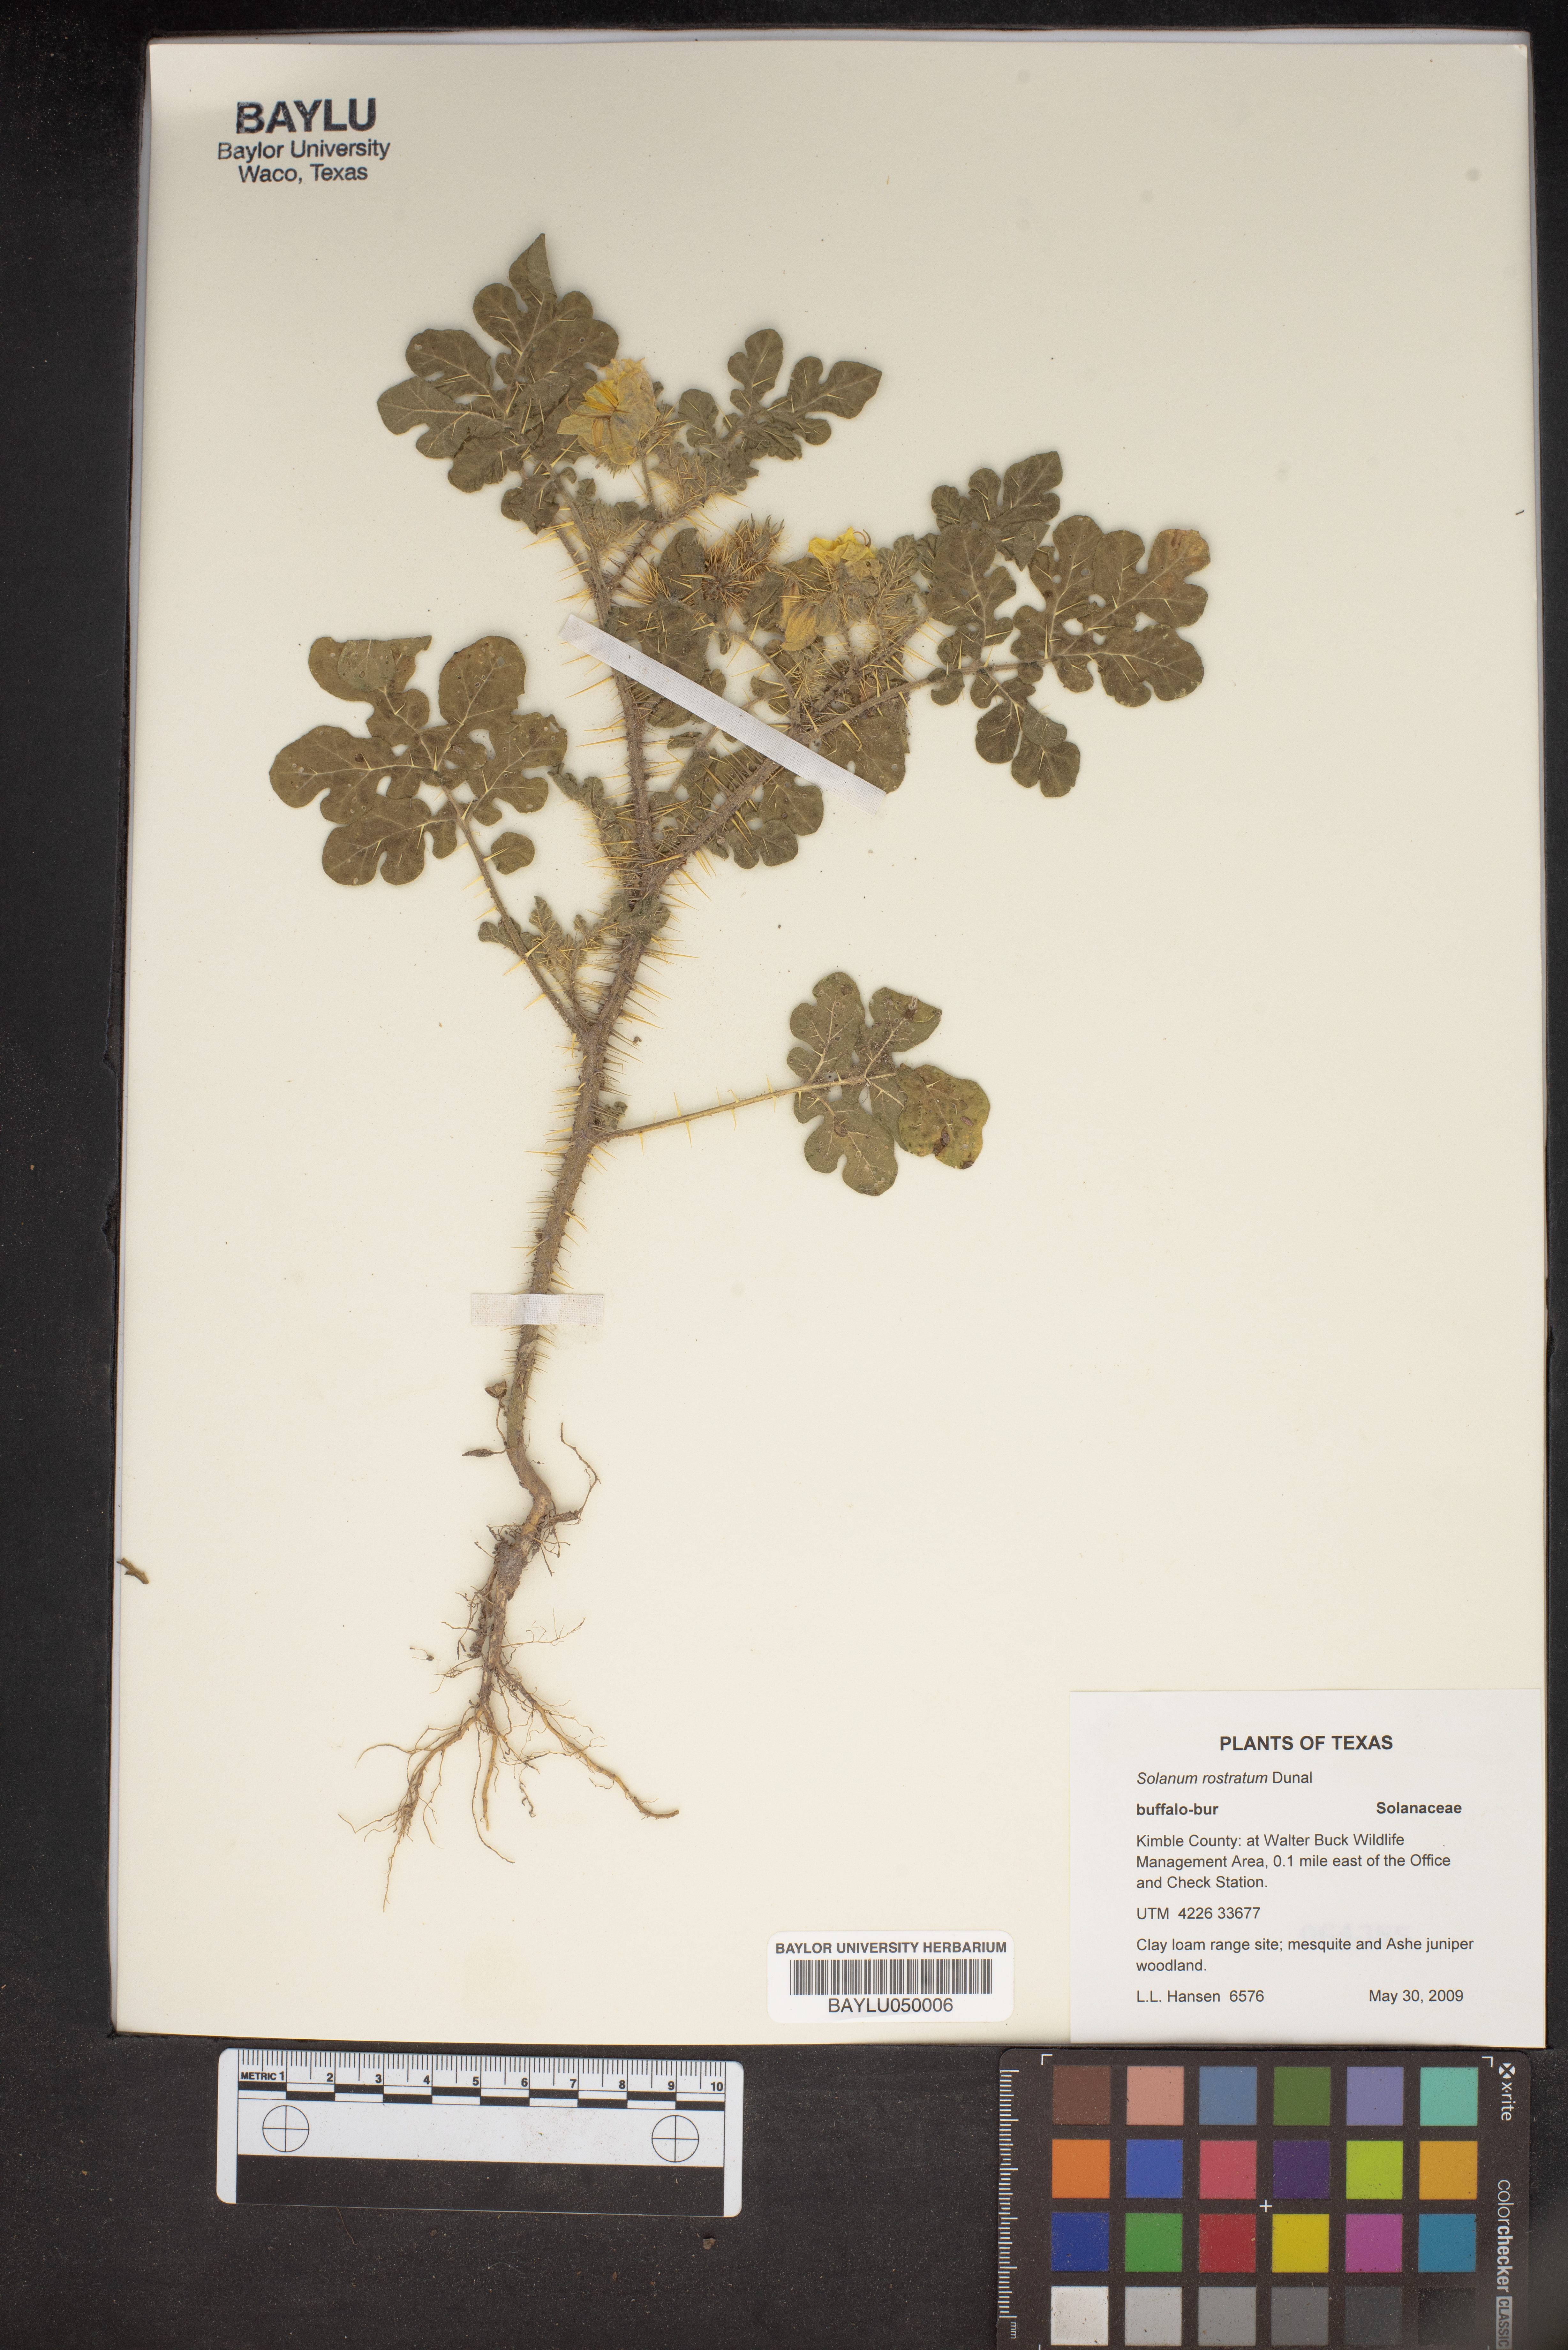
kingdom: Plantae
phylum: Tracheophyta
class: Magnoliopsida
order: Solanales
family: Solanaceae
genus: Solanum
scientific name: Solanum angustifolium
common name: Buffalobur nightshade
